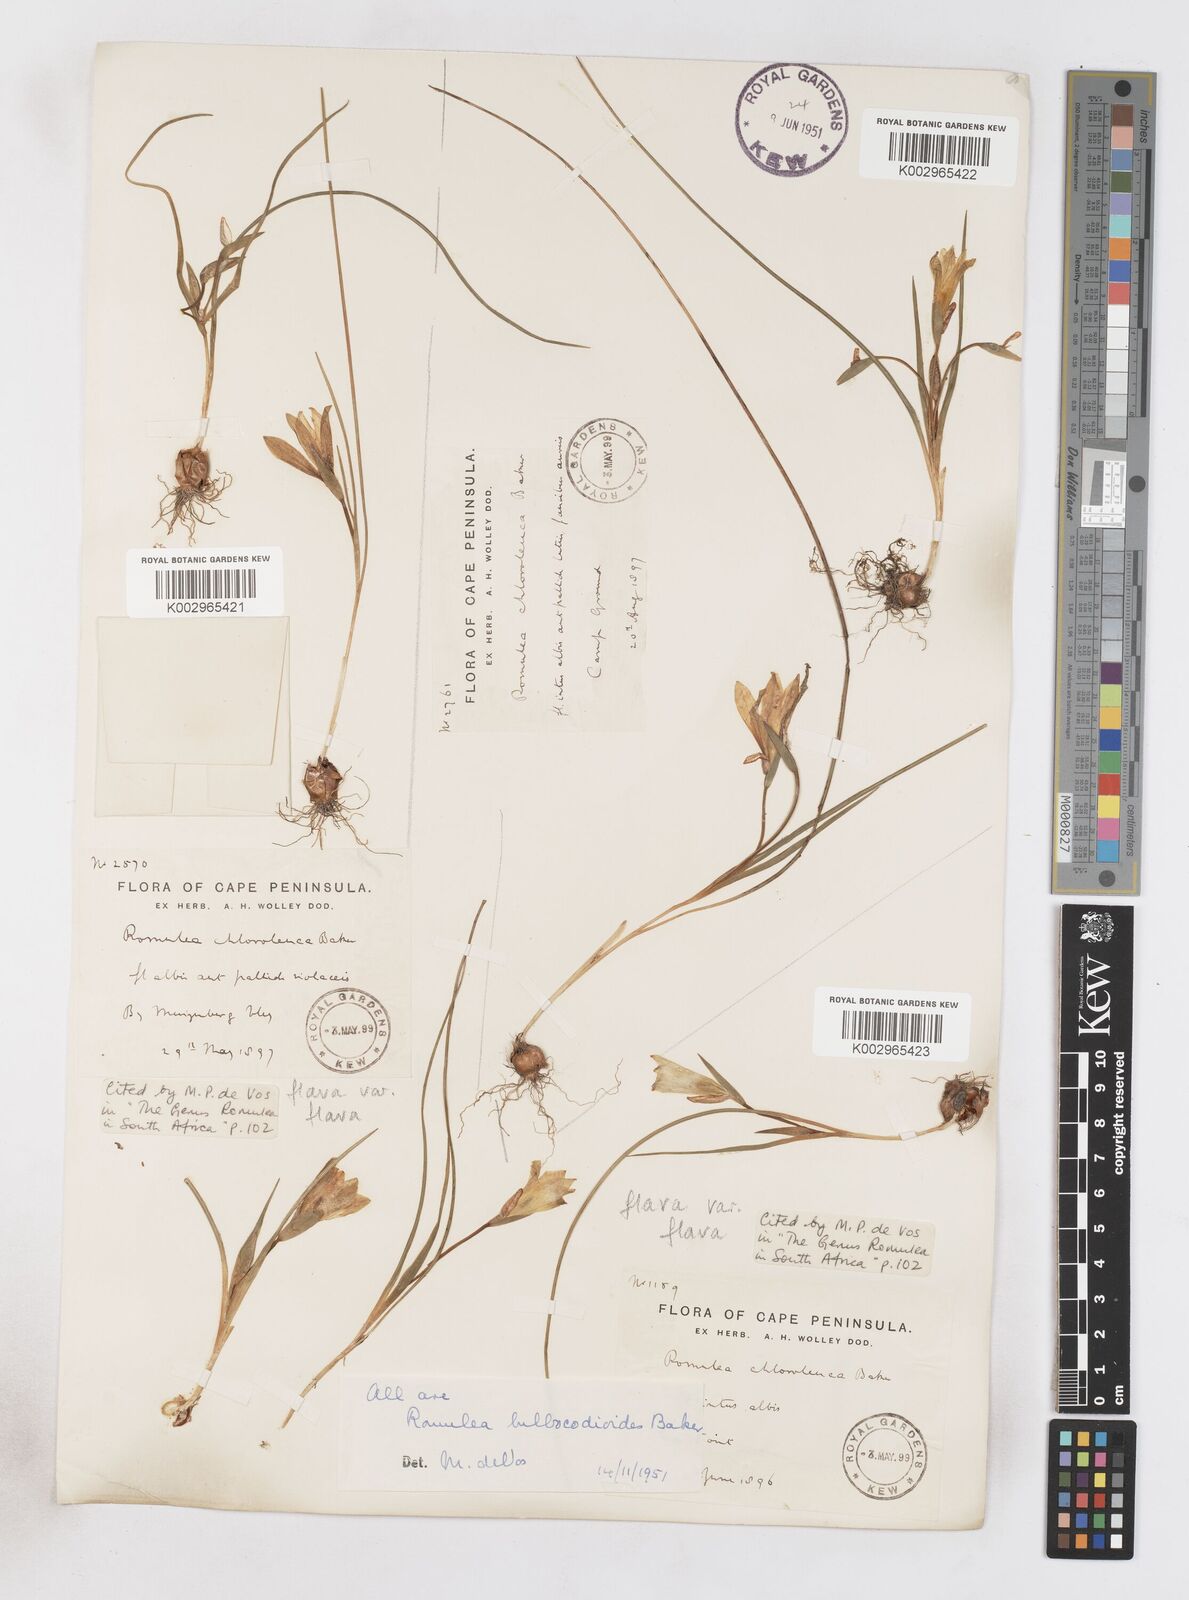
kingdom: Plantae
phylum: Tracheophyta
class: Liliopsida
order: Asparagales
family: Iridaceae
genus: Romulea
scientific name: Romulea flava
